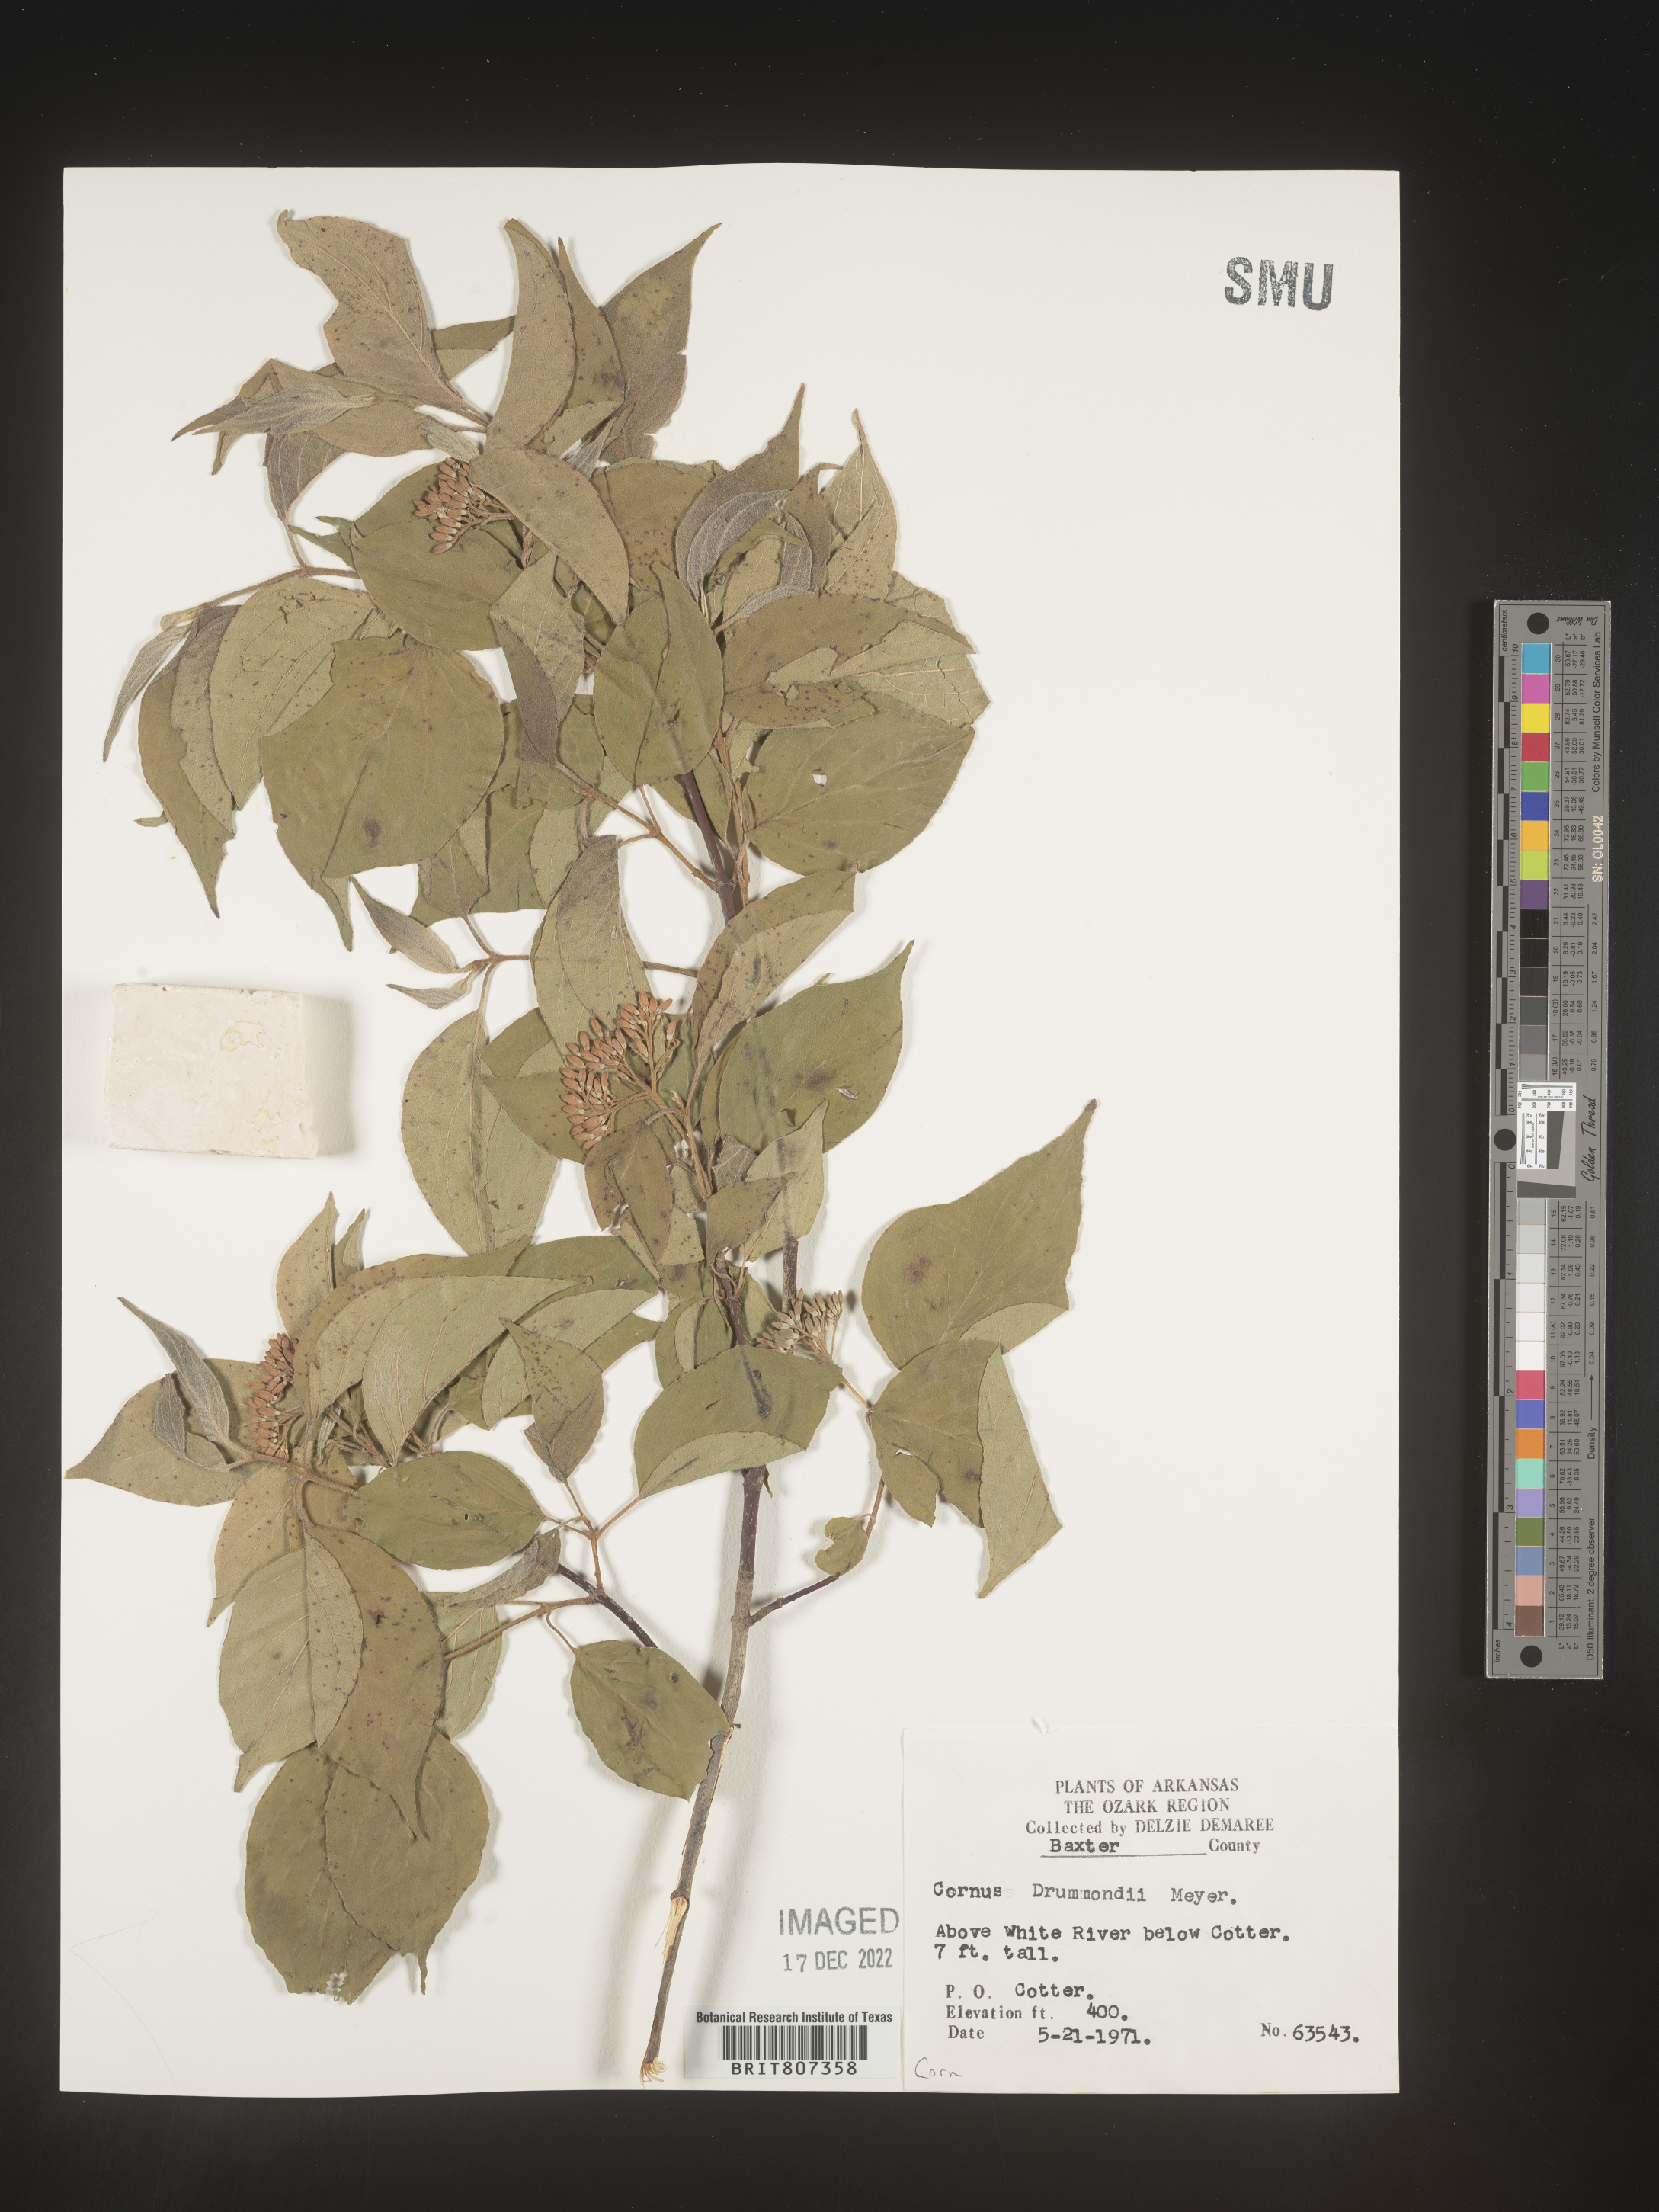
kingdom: Plantae
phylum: Tracheophyta
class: Magnoliopsida
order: Cornales
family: Cornaceae
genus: Cornus
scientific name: Cornus drummondii
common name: Rough-leaf dogwood
